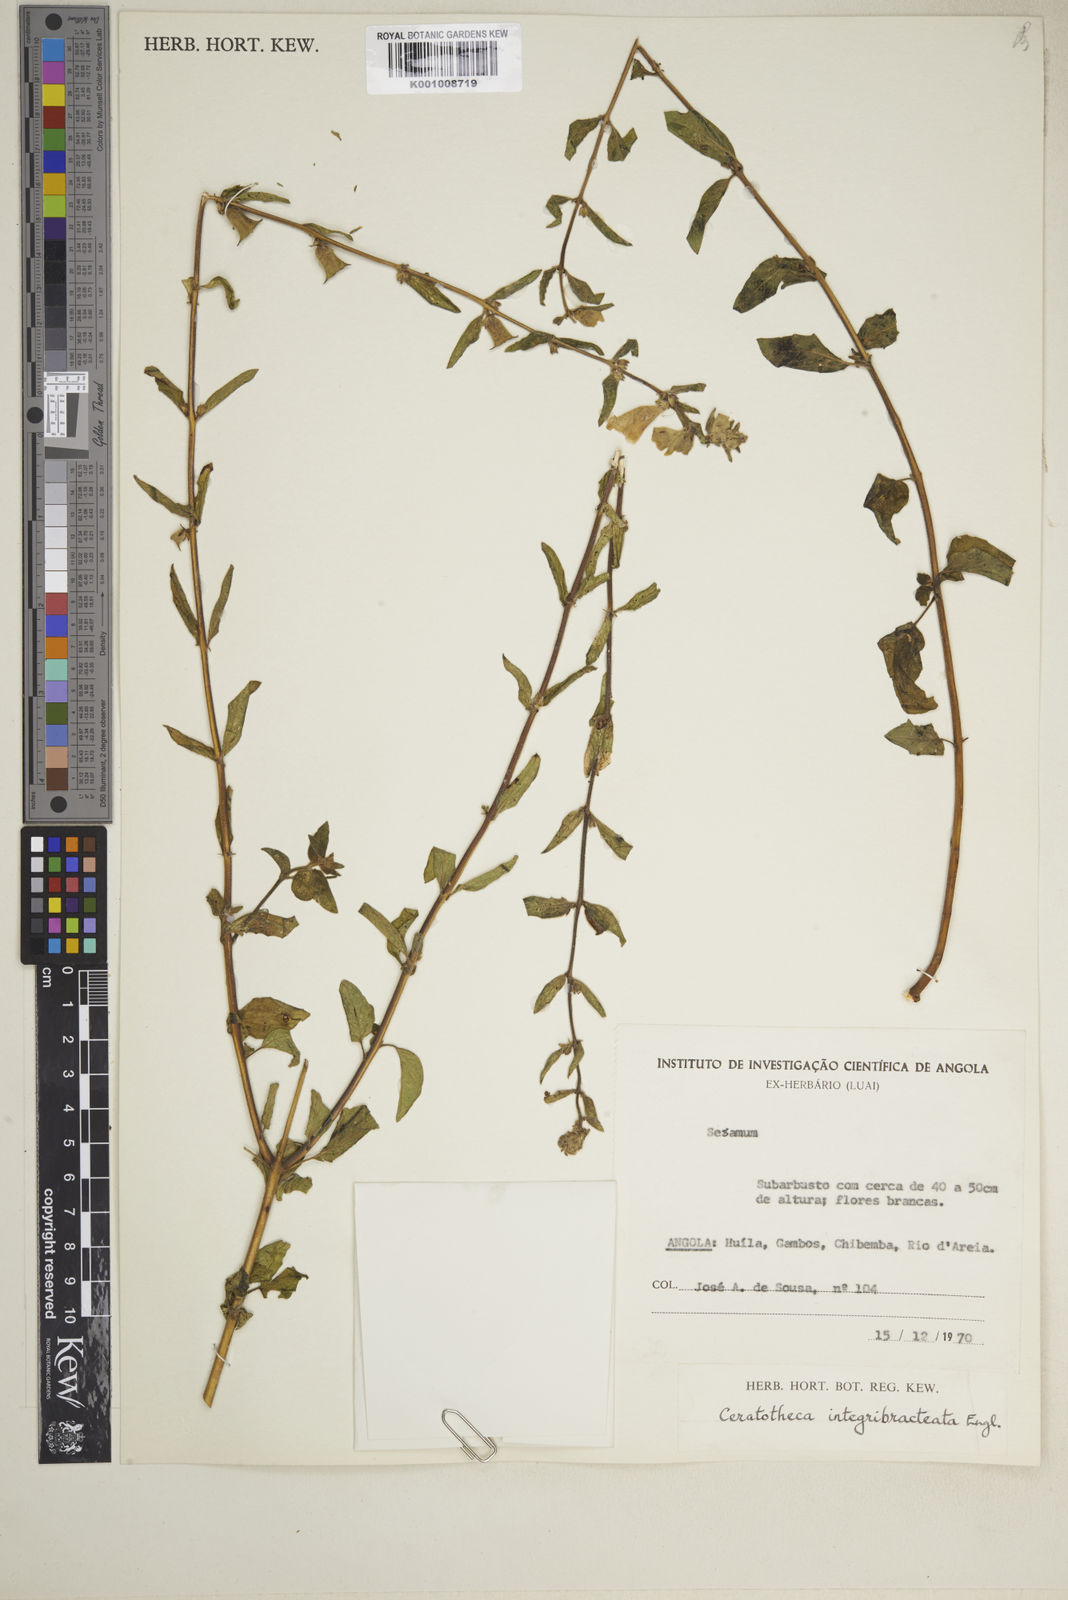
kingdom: Plantae
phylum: Tracheophyta
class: Magnoliopsida
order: Lamiales
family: Pedaliaceae
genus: Sesamum
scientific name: Sesamum integribracteatum
